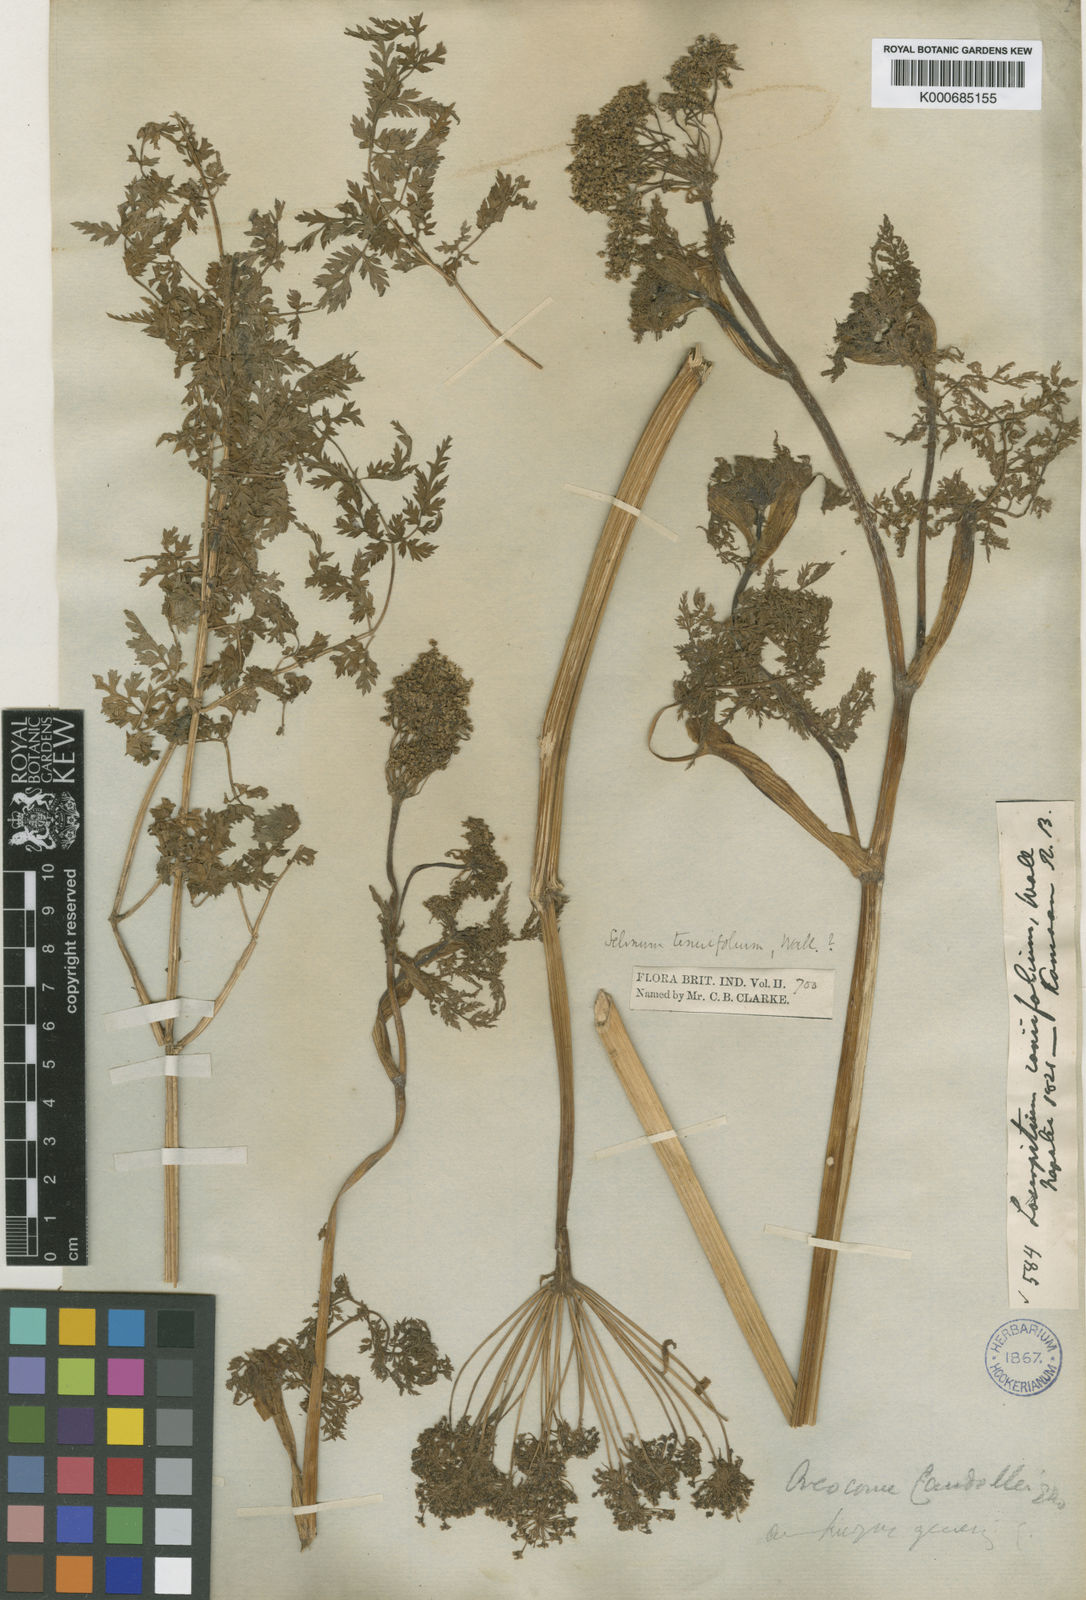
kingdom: Plantae
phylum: Tracheophyta
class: Magnoliopsida
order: Apiales
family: Apiaceae
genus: Selinum
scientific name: Selinum
